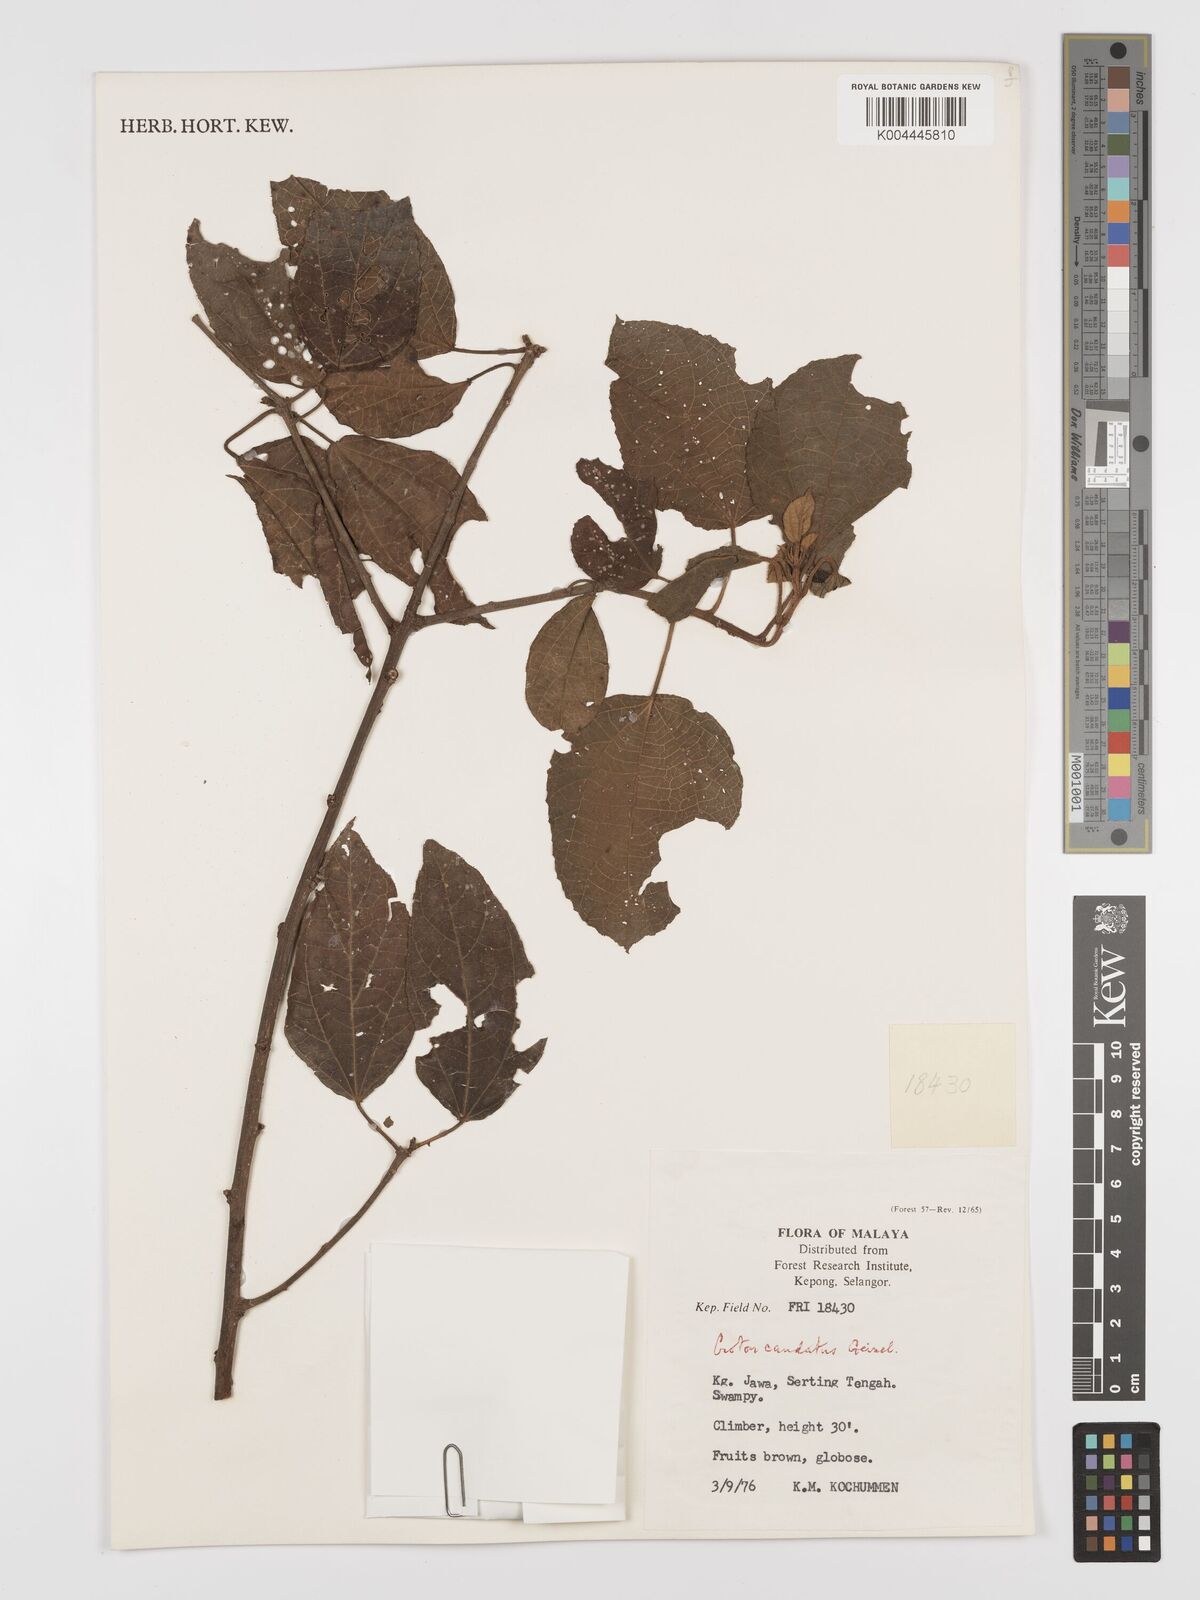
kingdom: Plantae
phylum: Tracheophyta
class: Magnoliopsida
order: Malpighiales
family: Euphorbiaceae
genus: Croton
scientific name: Croton caudatus
